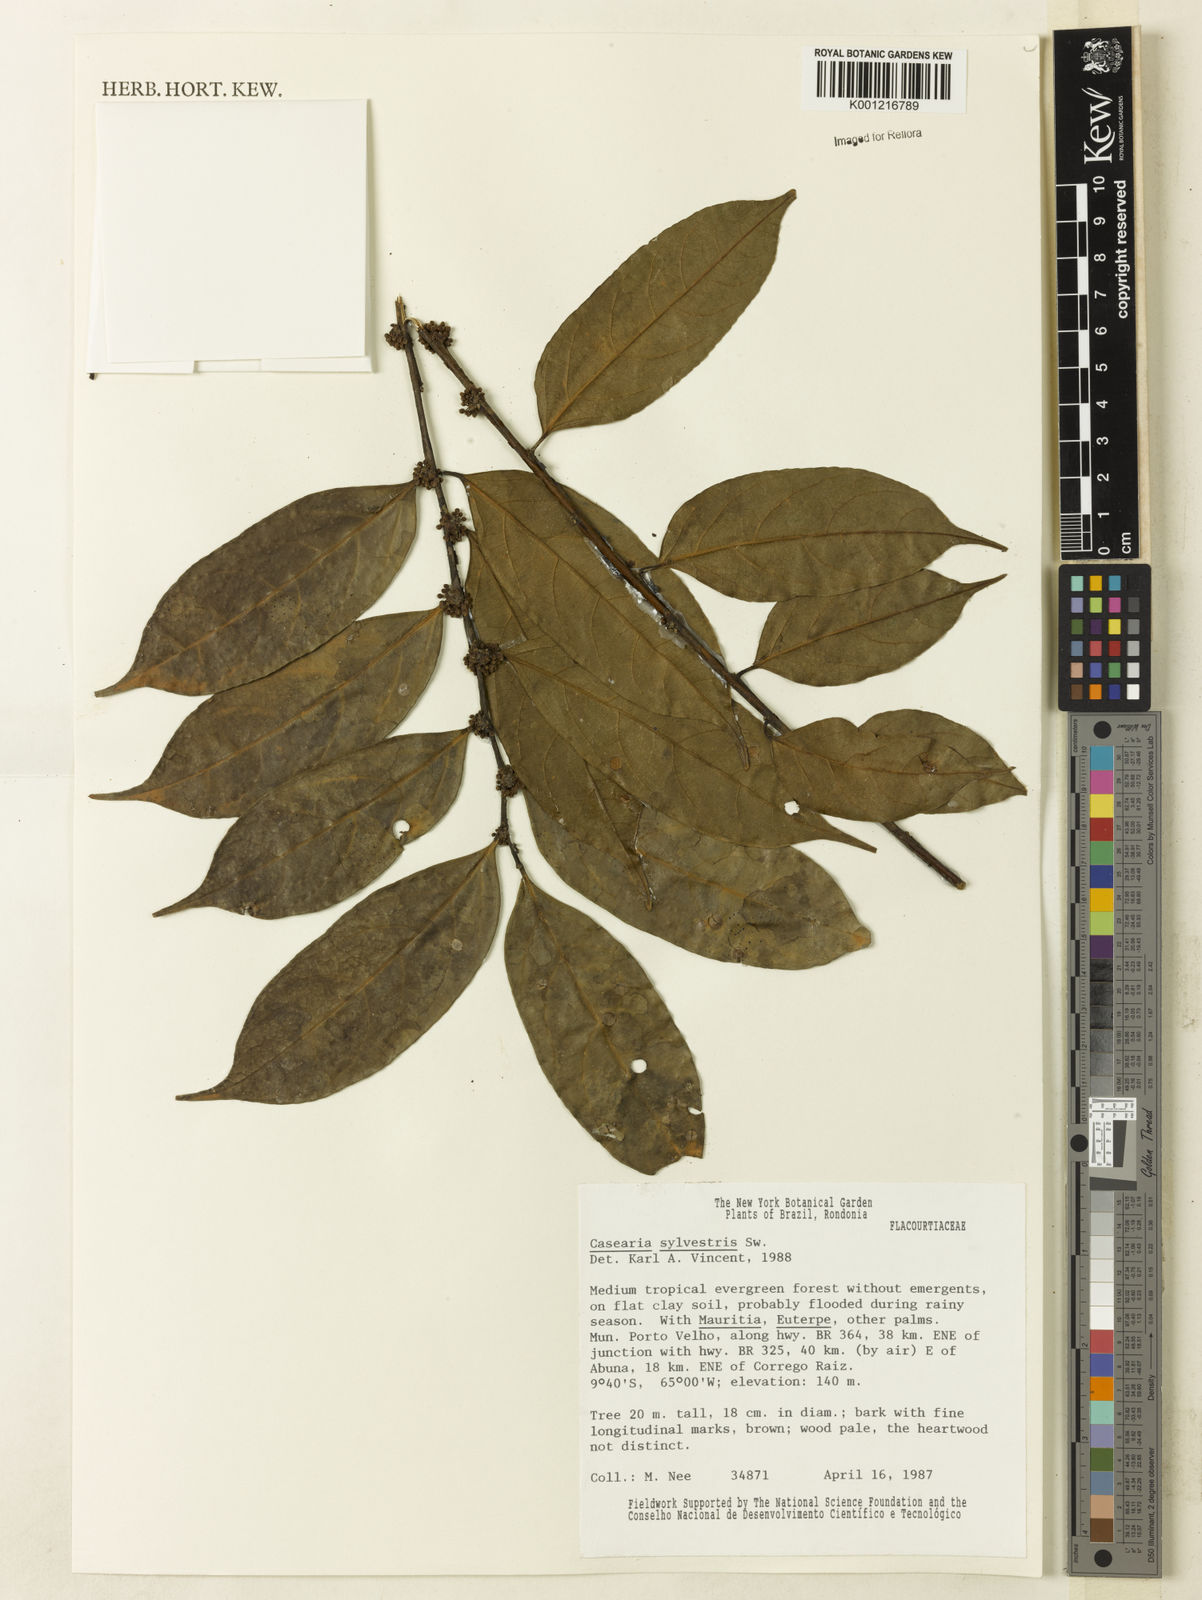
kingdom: Plantae
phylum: Tracheophyta
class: Magnoliopsida
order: Malpighiales
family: Salicaceae
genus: Casearia
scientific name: Casearia sylvestris
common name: Wild sage
